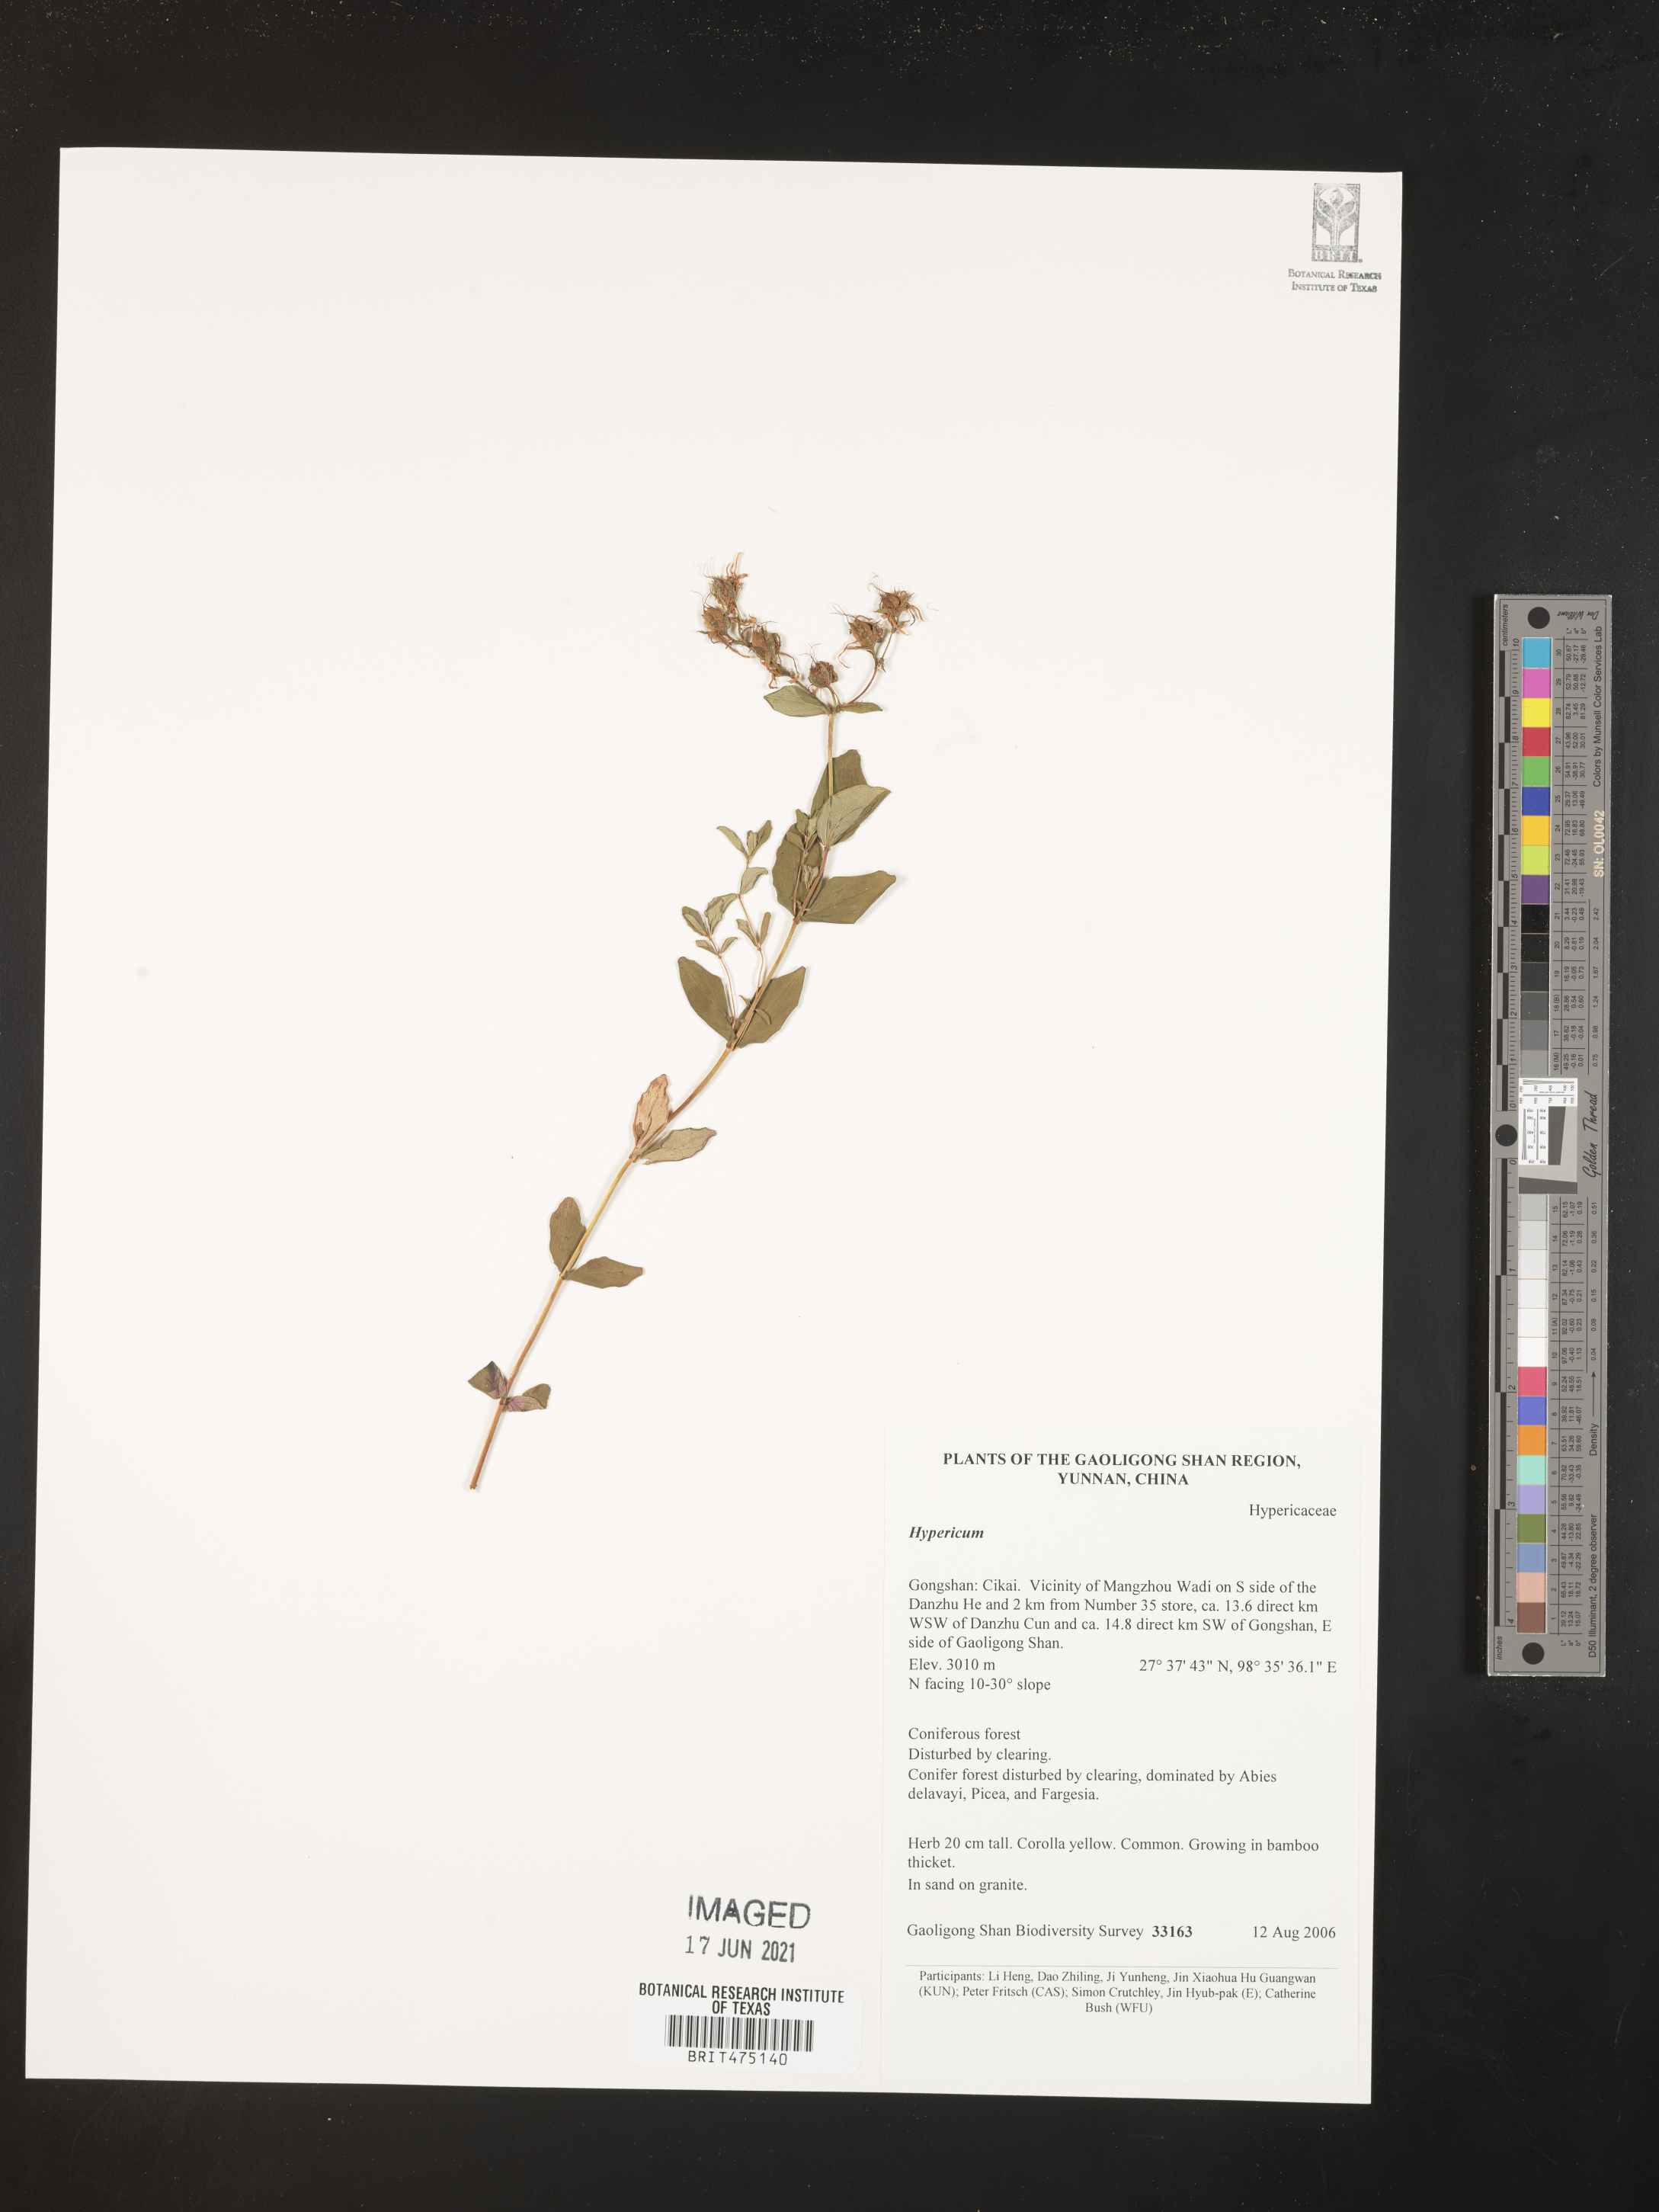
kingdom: Plantae
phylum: Tracheophyta
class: Magnoliopsida
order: Malpighiales
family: Hypericaceae
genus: Hypericum
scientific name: Hypericum
